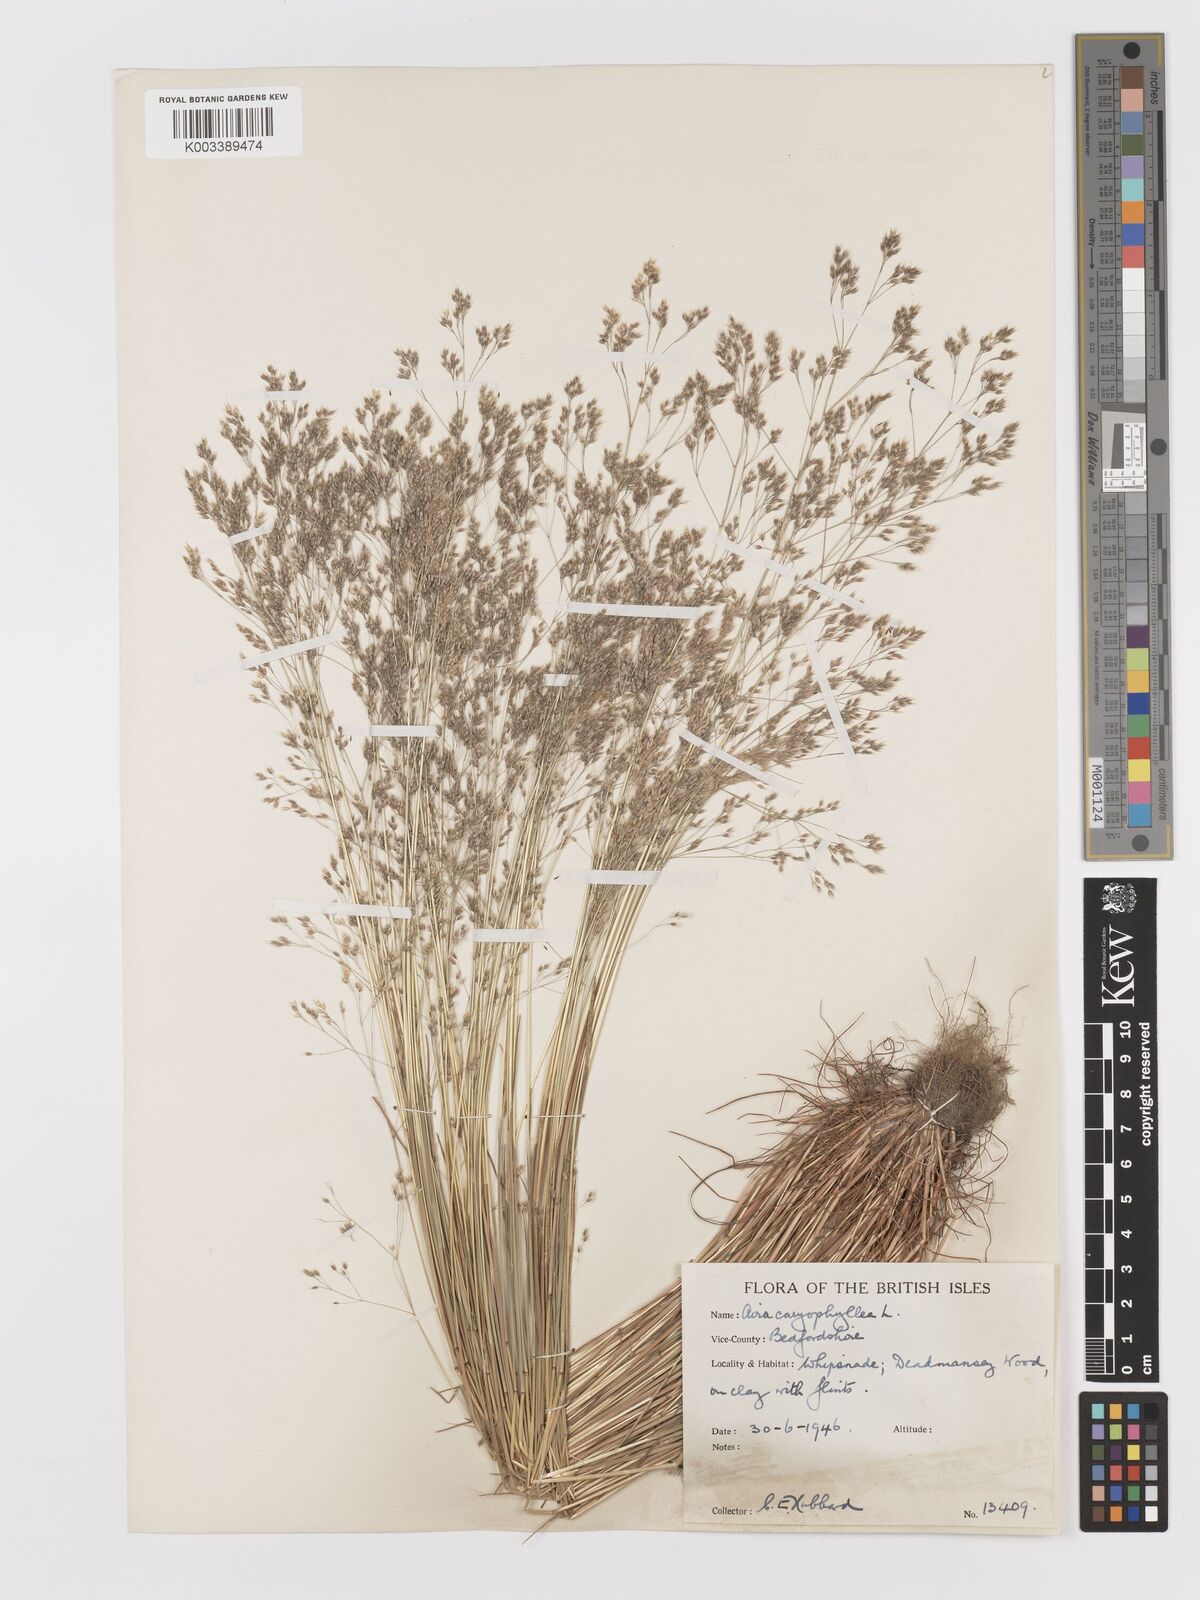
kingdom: Plantae
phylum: Tracheophyta
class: Liliopsida
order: Poales
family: Poaceae
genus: Aira
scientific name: Aira caryophyllea
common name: Silver hairgrass
